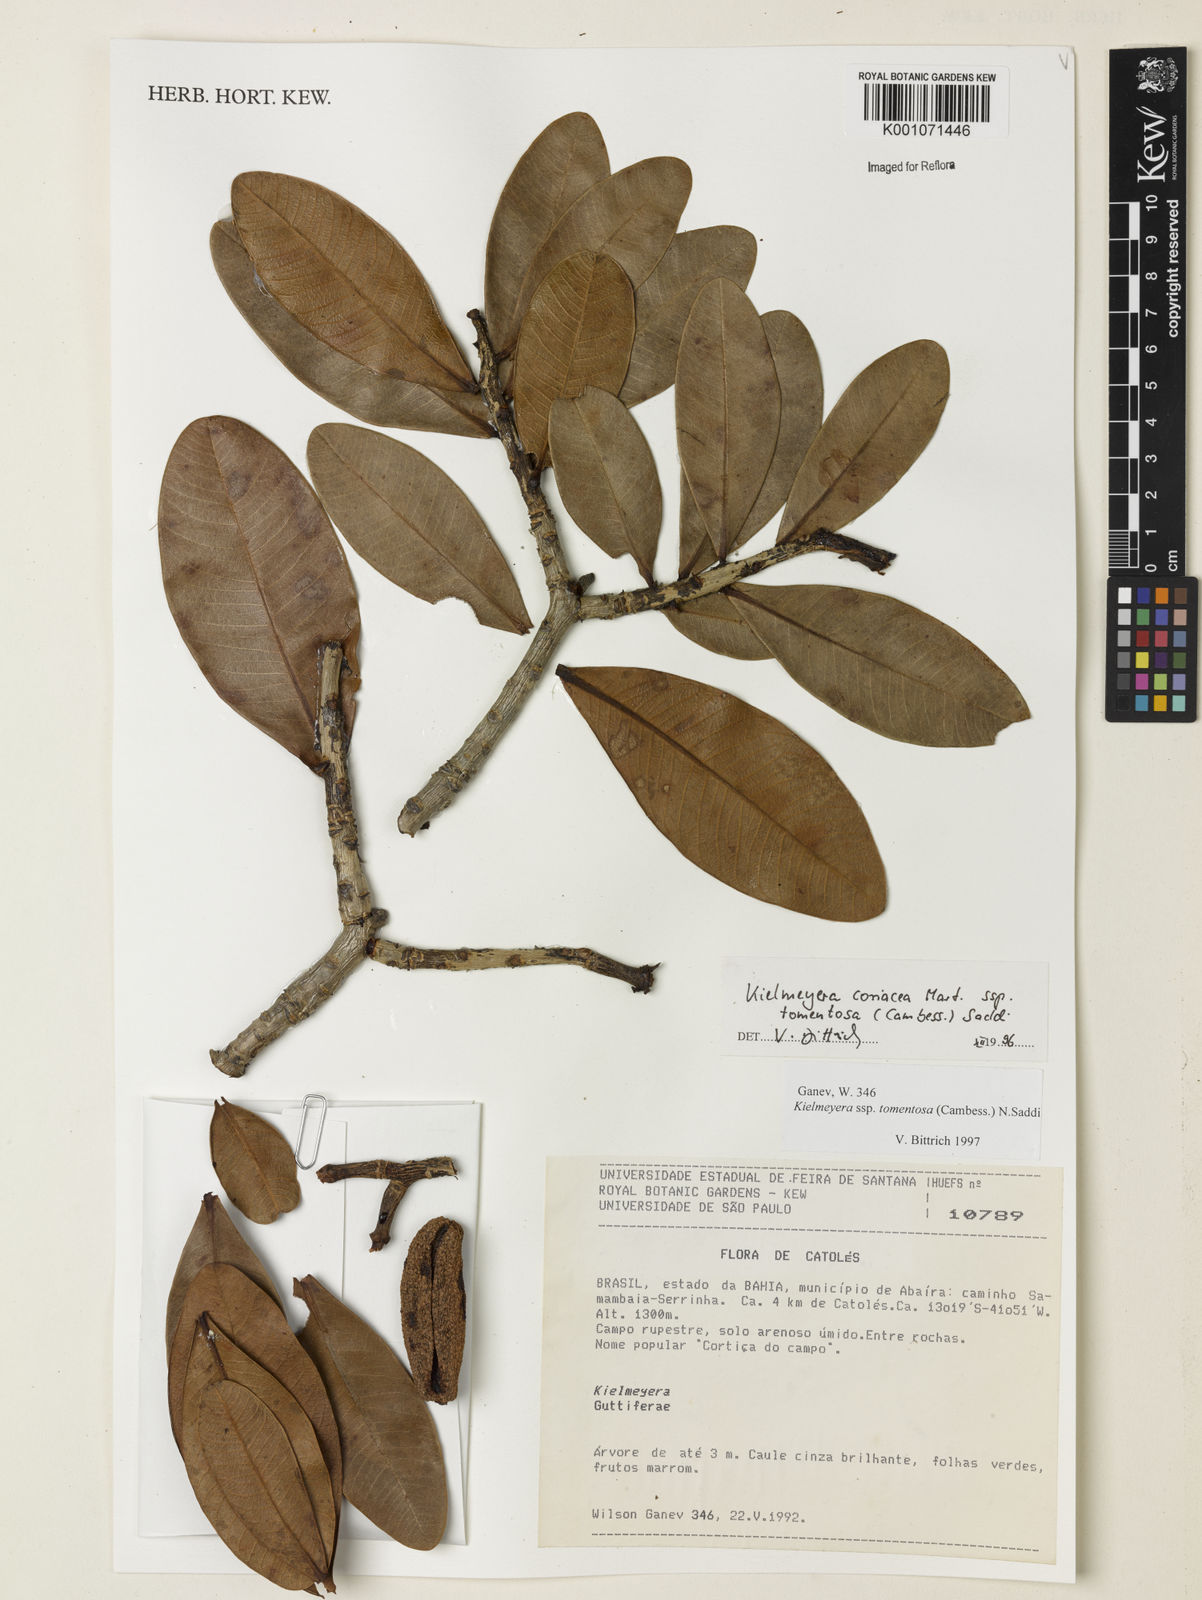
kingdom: Plantae
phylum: Tracheophyta
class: Magnoliopsida
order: Malpighiales
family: Calophyllaceae
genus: Kielmeyera
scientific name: Kielmeyera coriacea
